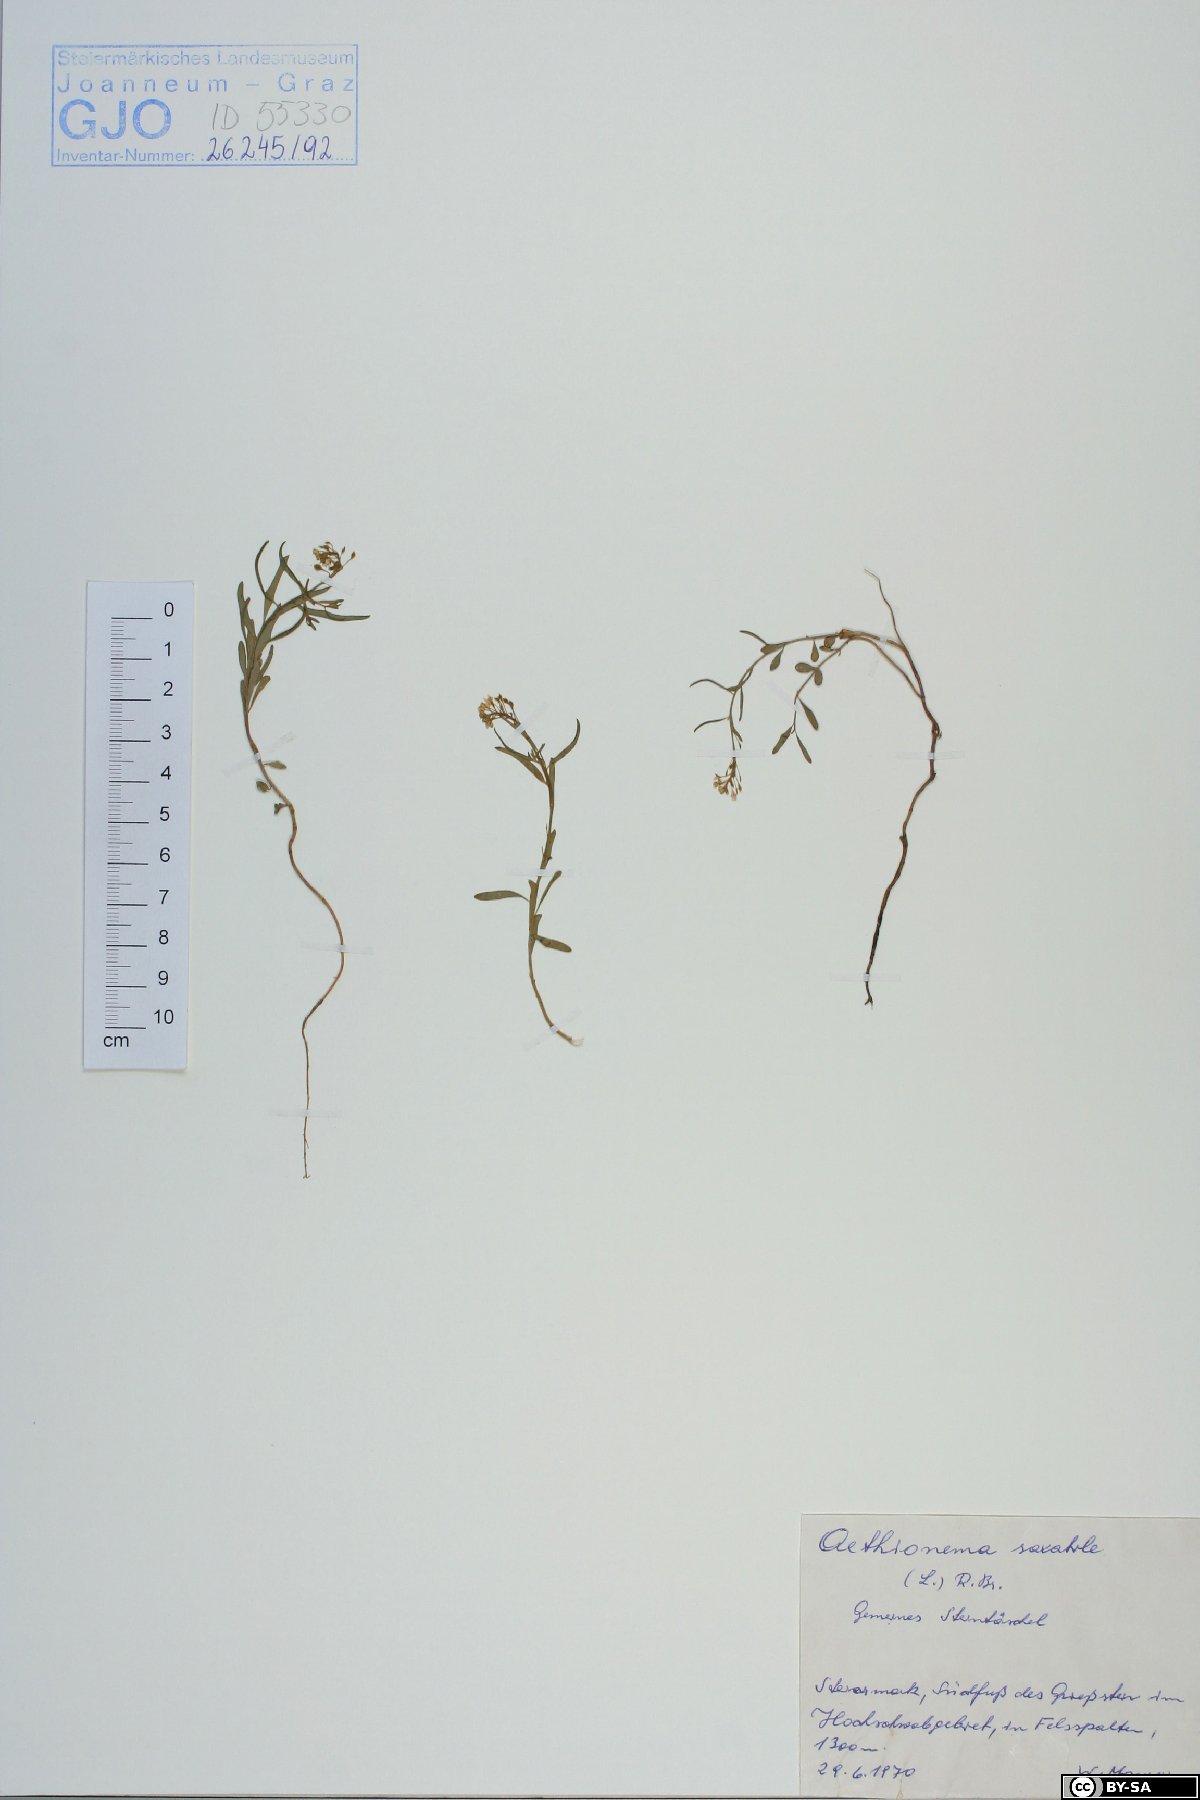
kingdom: Plantae
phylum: Tracheophyta
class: Magnoliopsida
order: Brassicales
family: Brassicaceae
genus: Aethionema
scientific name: Aethionema saxatile
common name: Burnt candytuft
